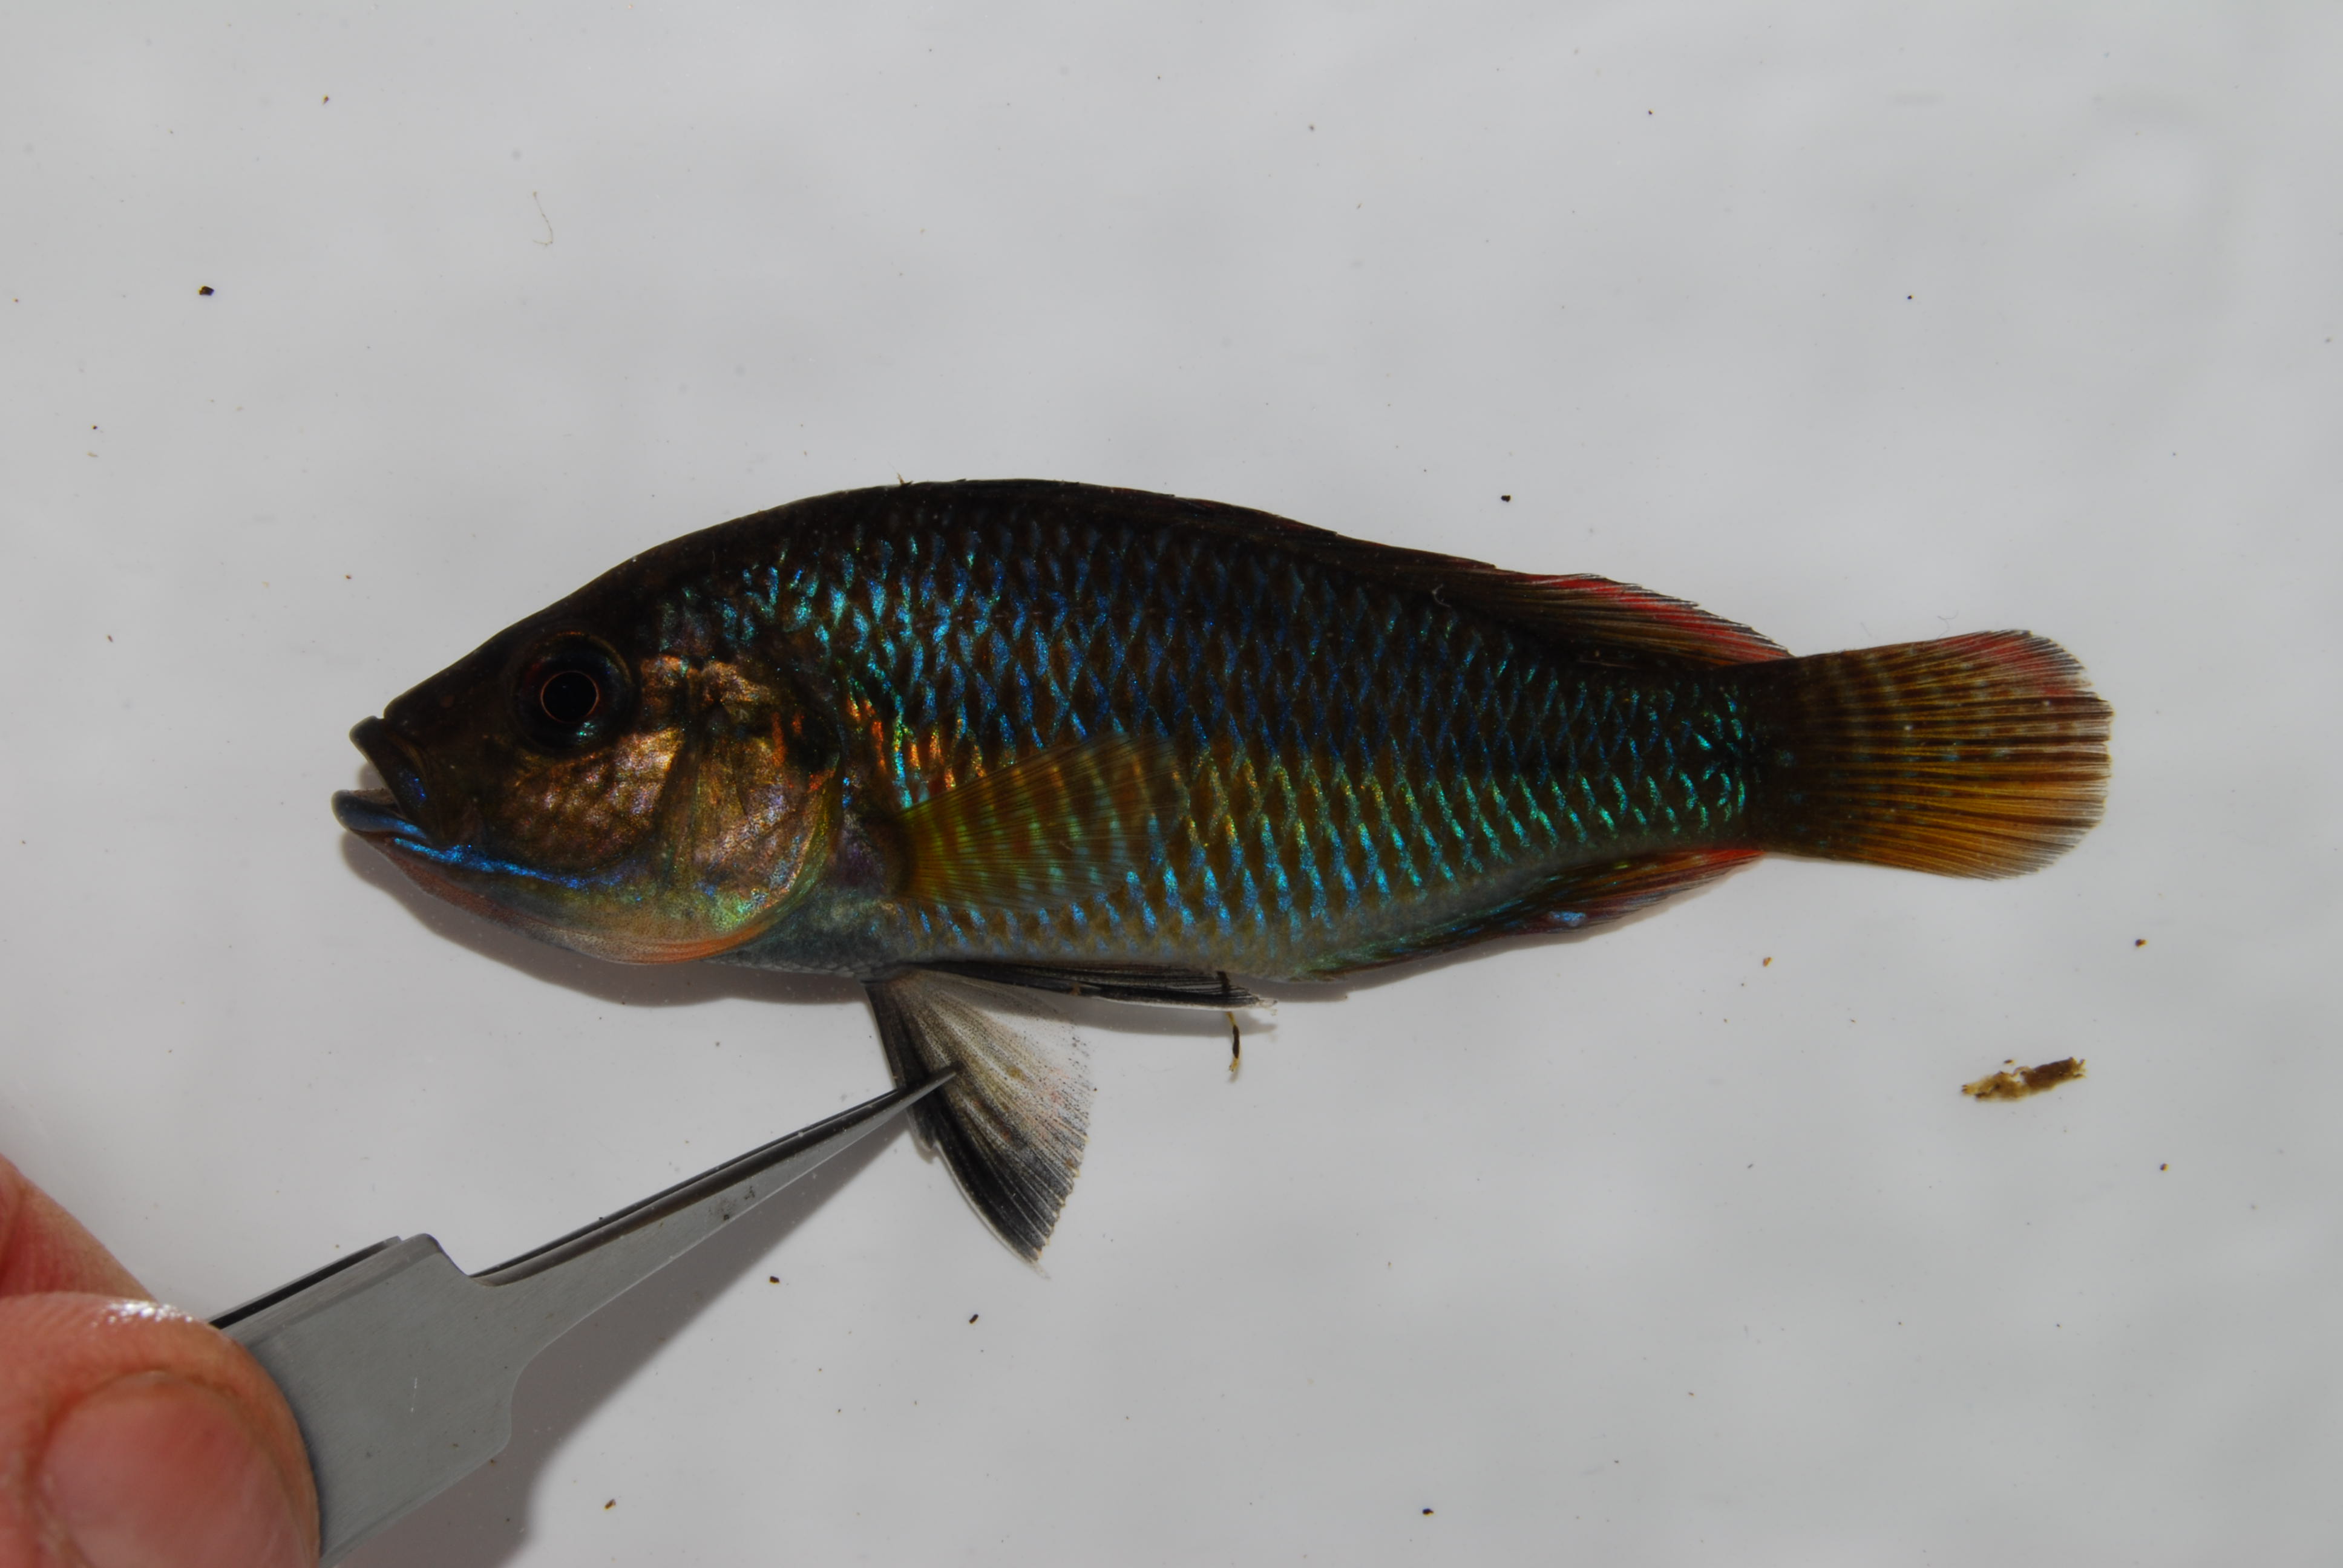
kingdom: Animalia
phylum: Chordata
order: Perciformes
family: Cichlidae
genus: Pseudocrenilabrus
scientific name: Pseudocrenilabrus philander
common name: Southern mouthbrooder
